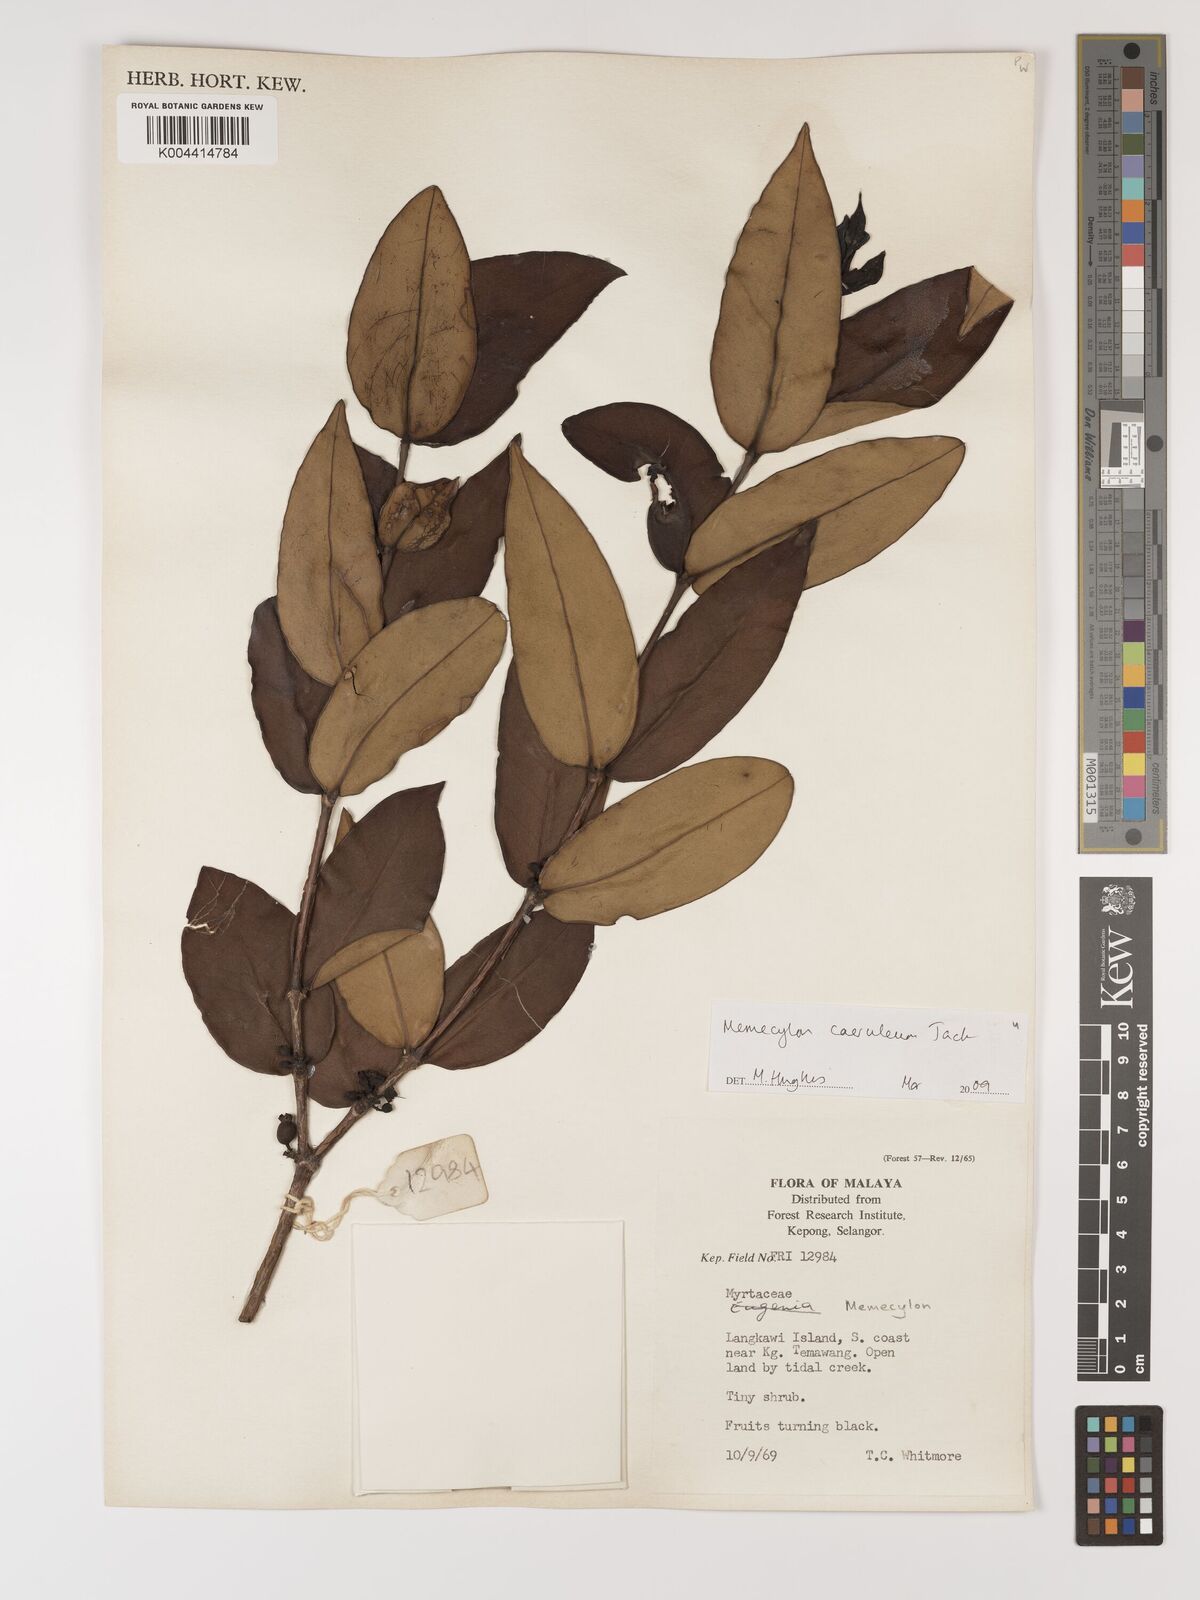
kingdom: Plantae
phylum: Tracheophyta
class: Magnoliopsida
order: Myrtales
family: Melastomataceae
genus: Memecylon
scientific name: Memecylon
